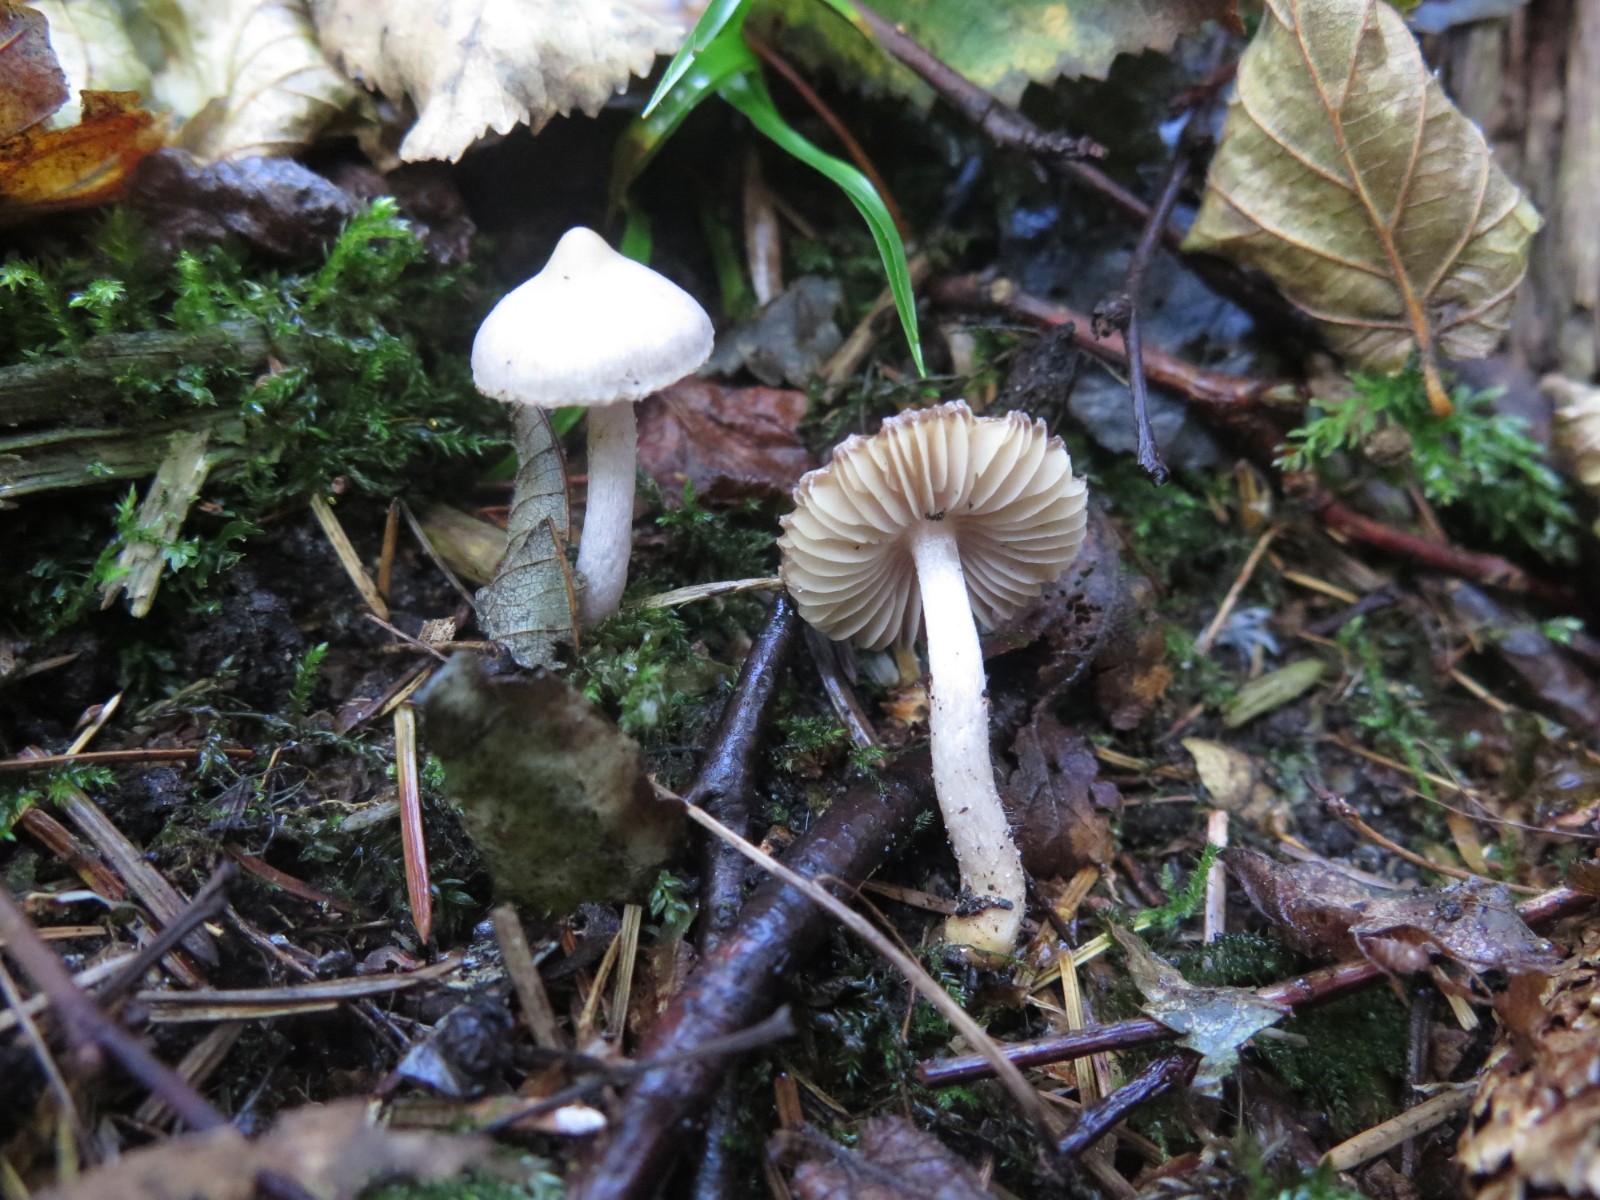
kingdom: Fungi
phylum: Basidiomycota
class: Agaricomycetes
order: Agaricales
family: Inocybaceae
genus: Inocybe
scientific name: Inocybe
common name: almindelig trævlhat
